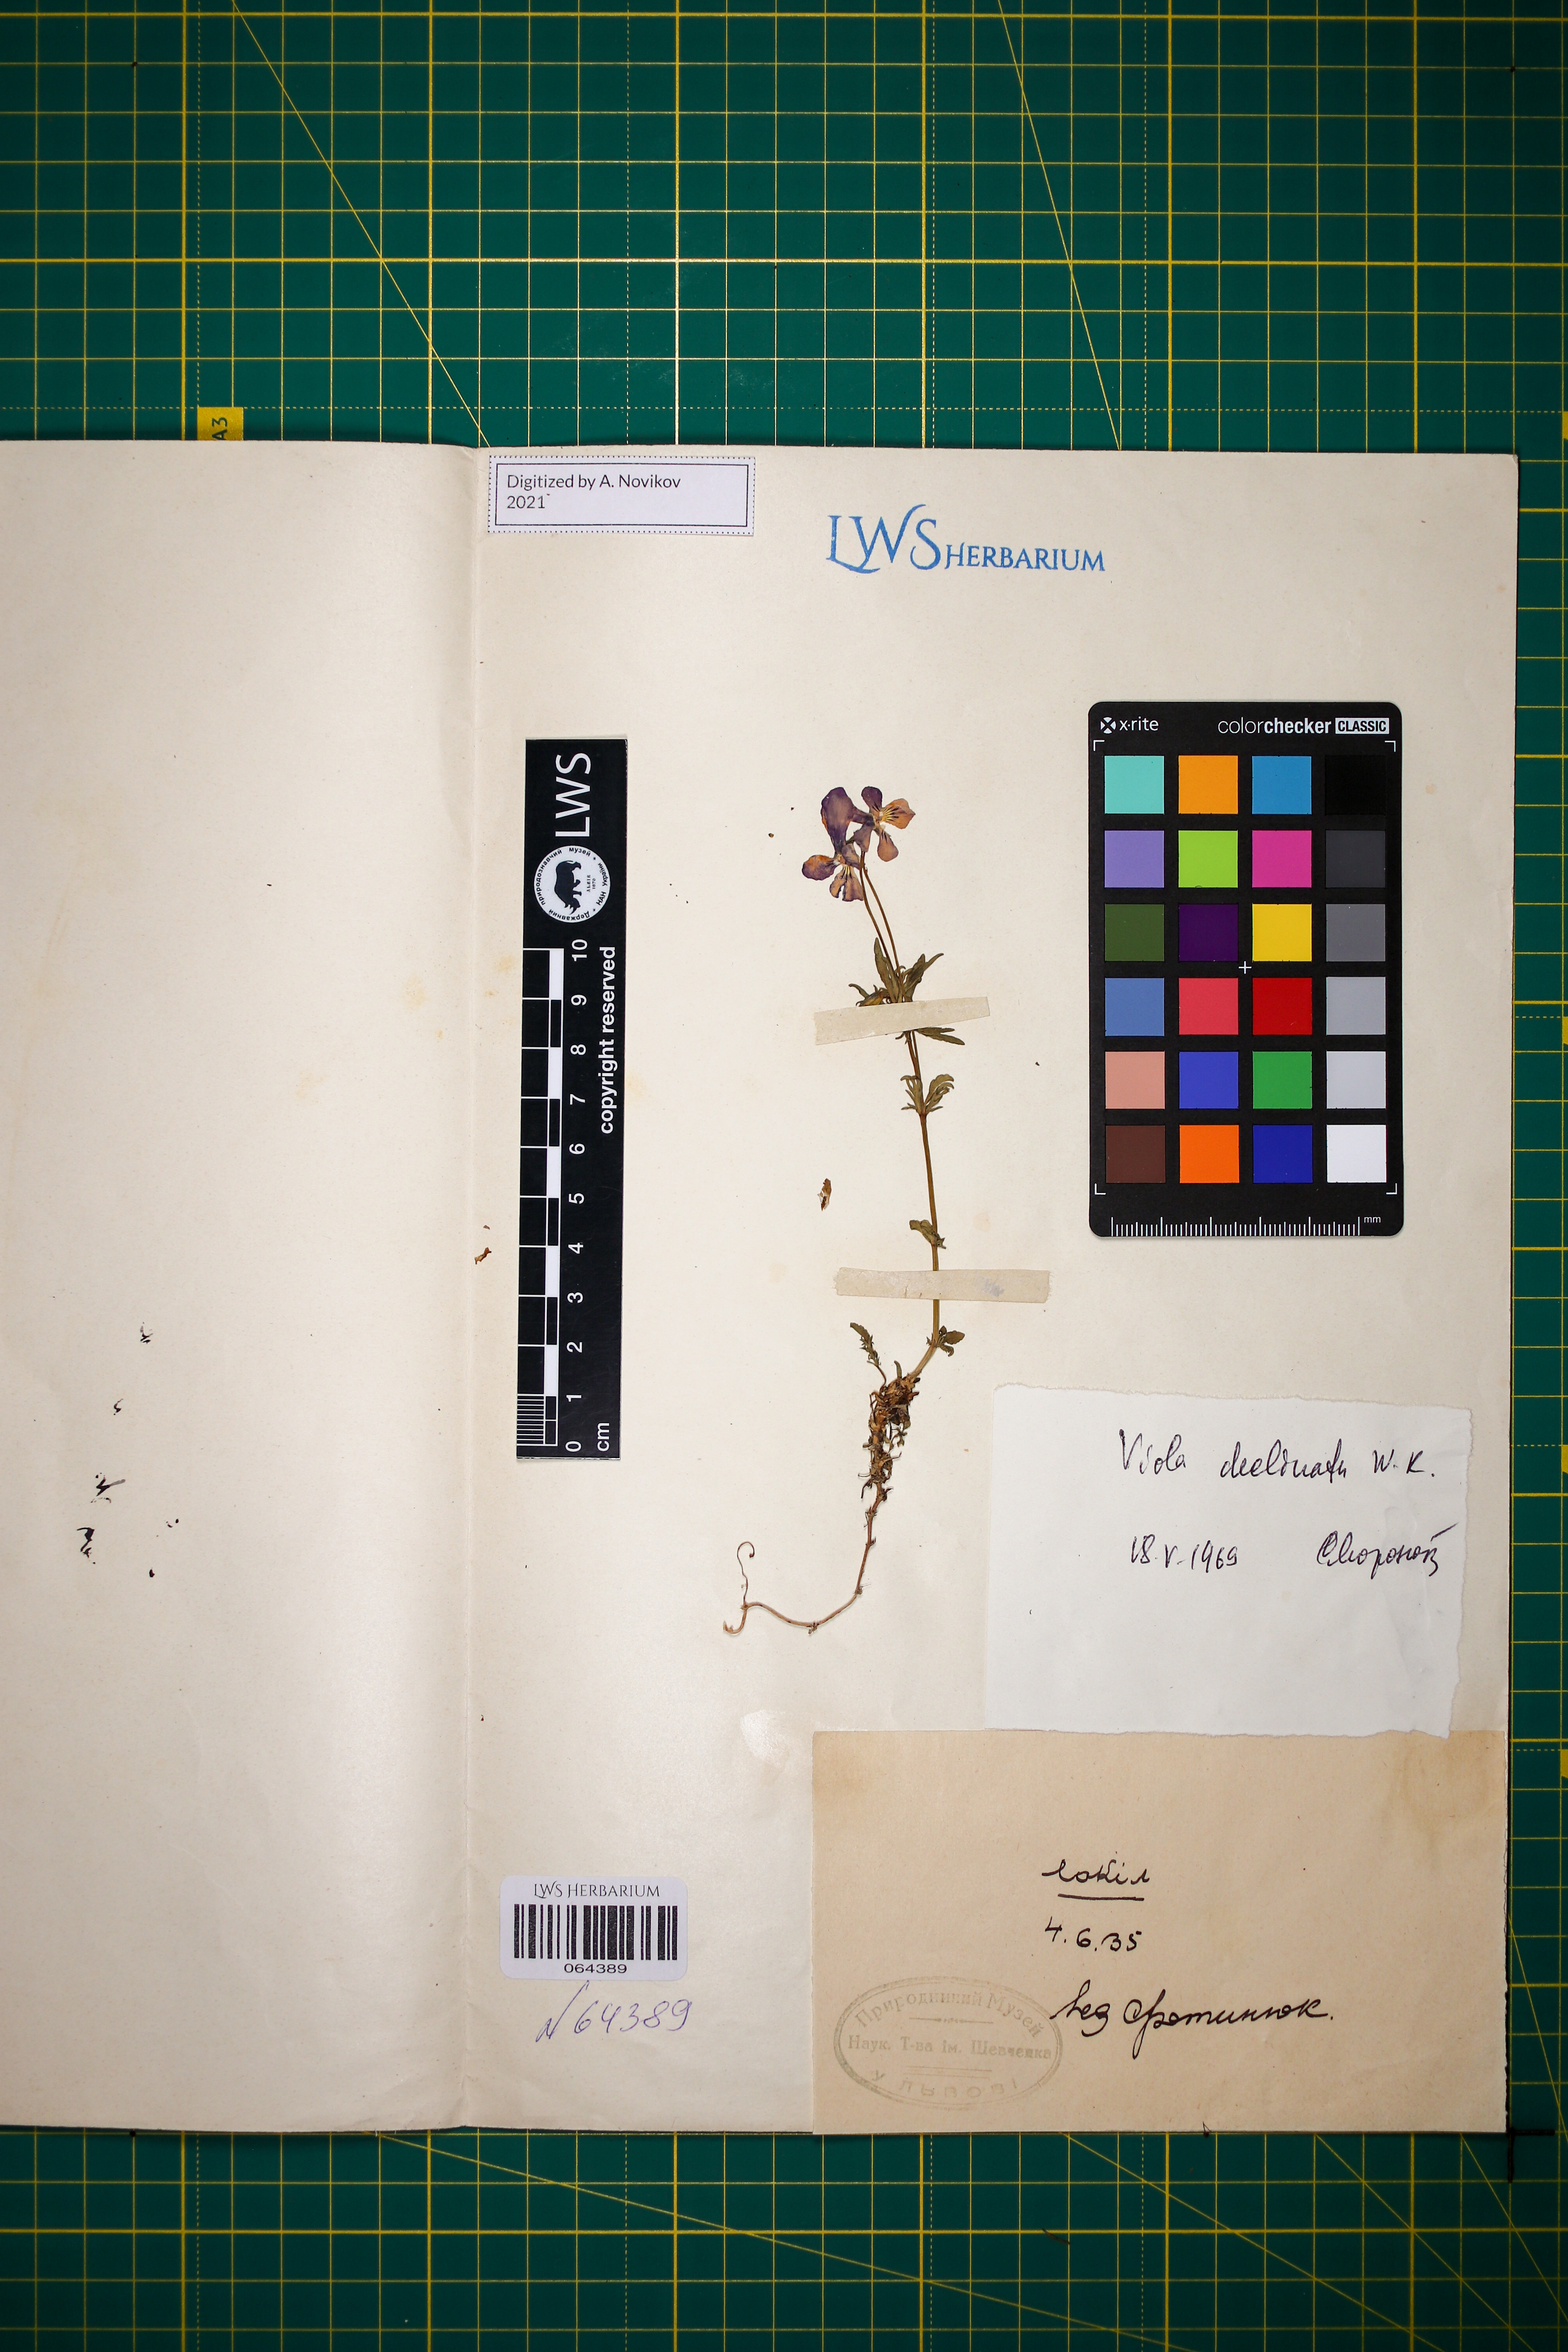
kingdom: Plantae
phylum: Tracheophyta
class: Magnoliopsida
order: Malpighiales
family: Violaceae
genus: Viola
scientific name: Viola declinata
